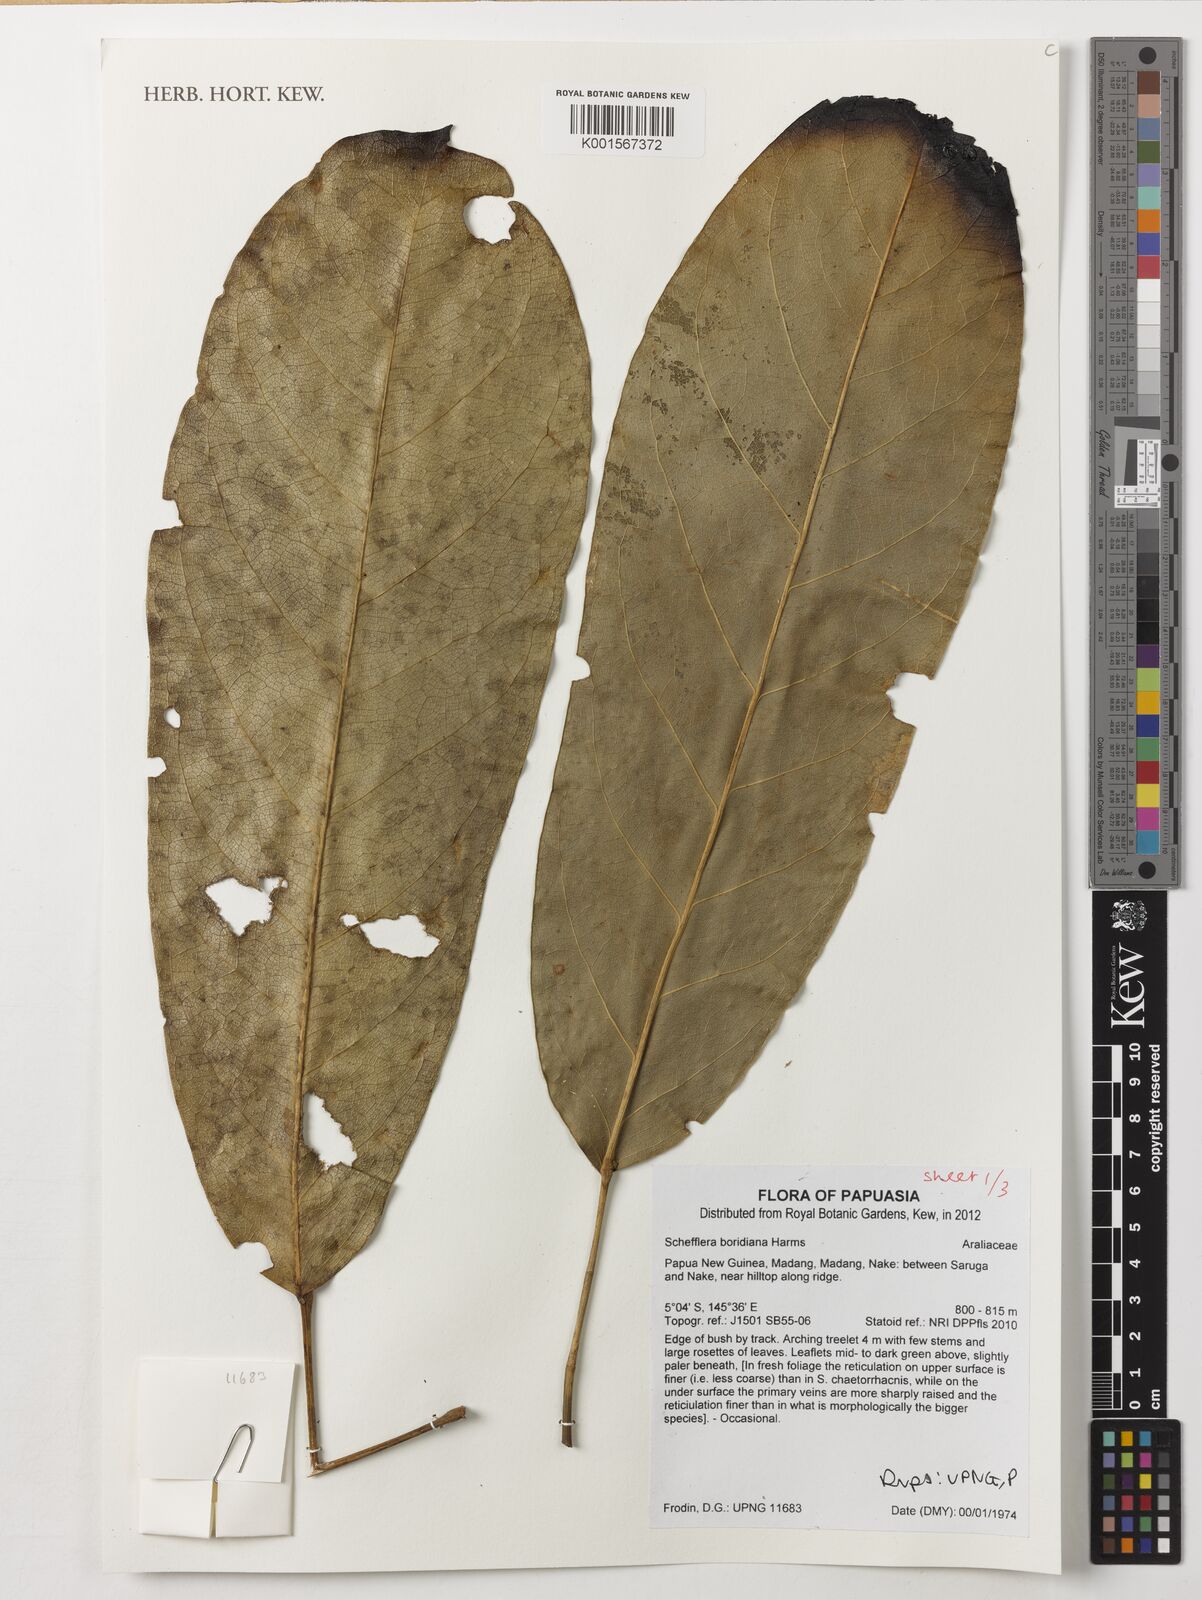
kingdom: Plantae
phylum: Tracheophyta
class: Magnoliopsida
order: Apiales
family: Araliaceae
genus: Heptapleurum
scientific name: Heptapleurum boridianum
